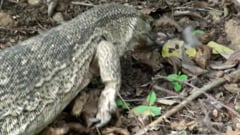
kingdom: Animalia
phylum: Chordata
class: Squamata
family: Varanidae
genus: Varanus
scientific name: Varanus
